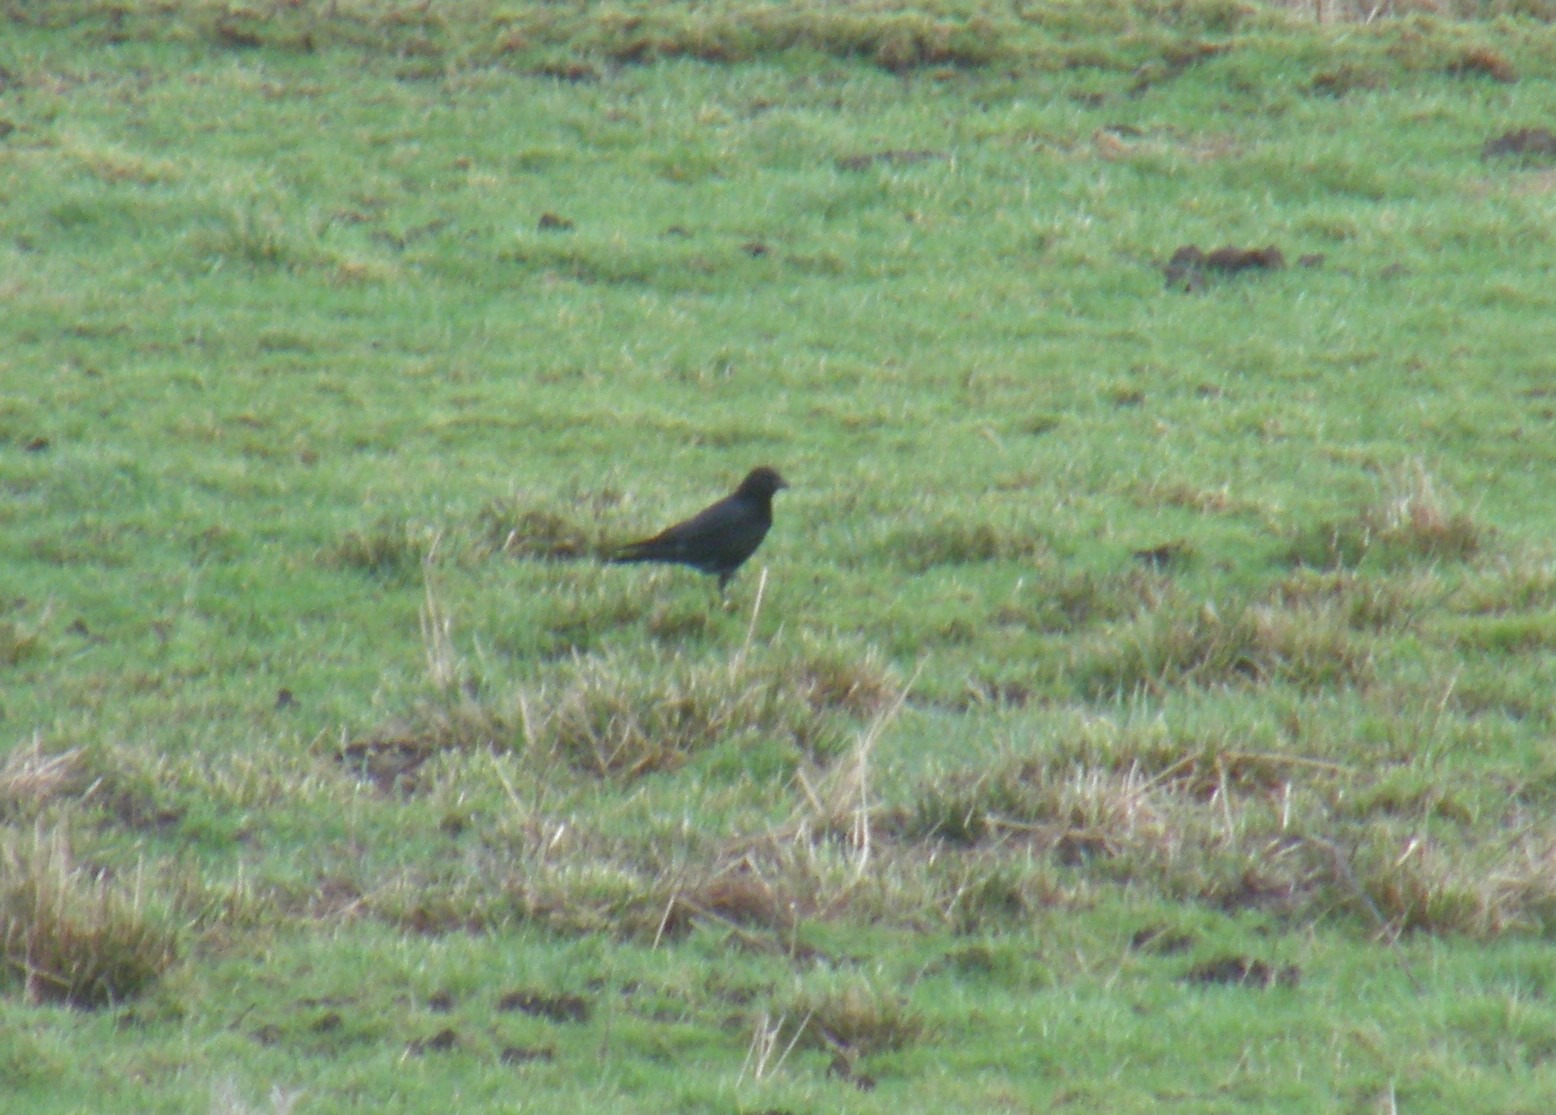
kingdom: Animalia
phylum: Chordata
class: Aves
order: Passeriformes
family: Corvidae
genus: Corvus
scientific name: Corvus corone
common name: Sortkrage
